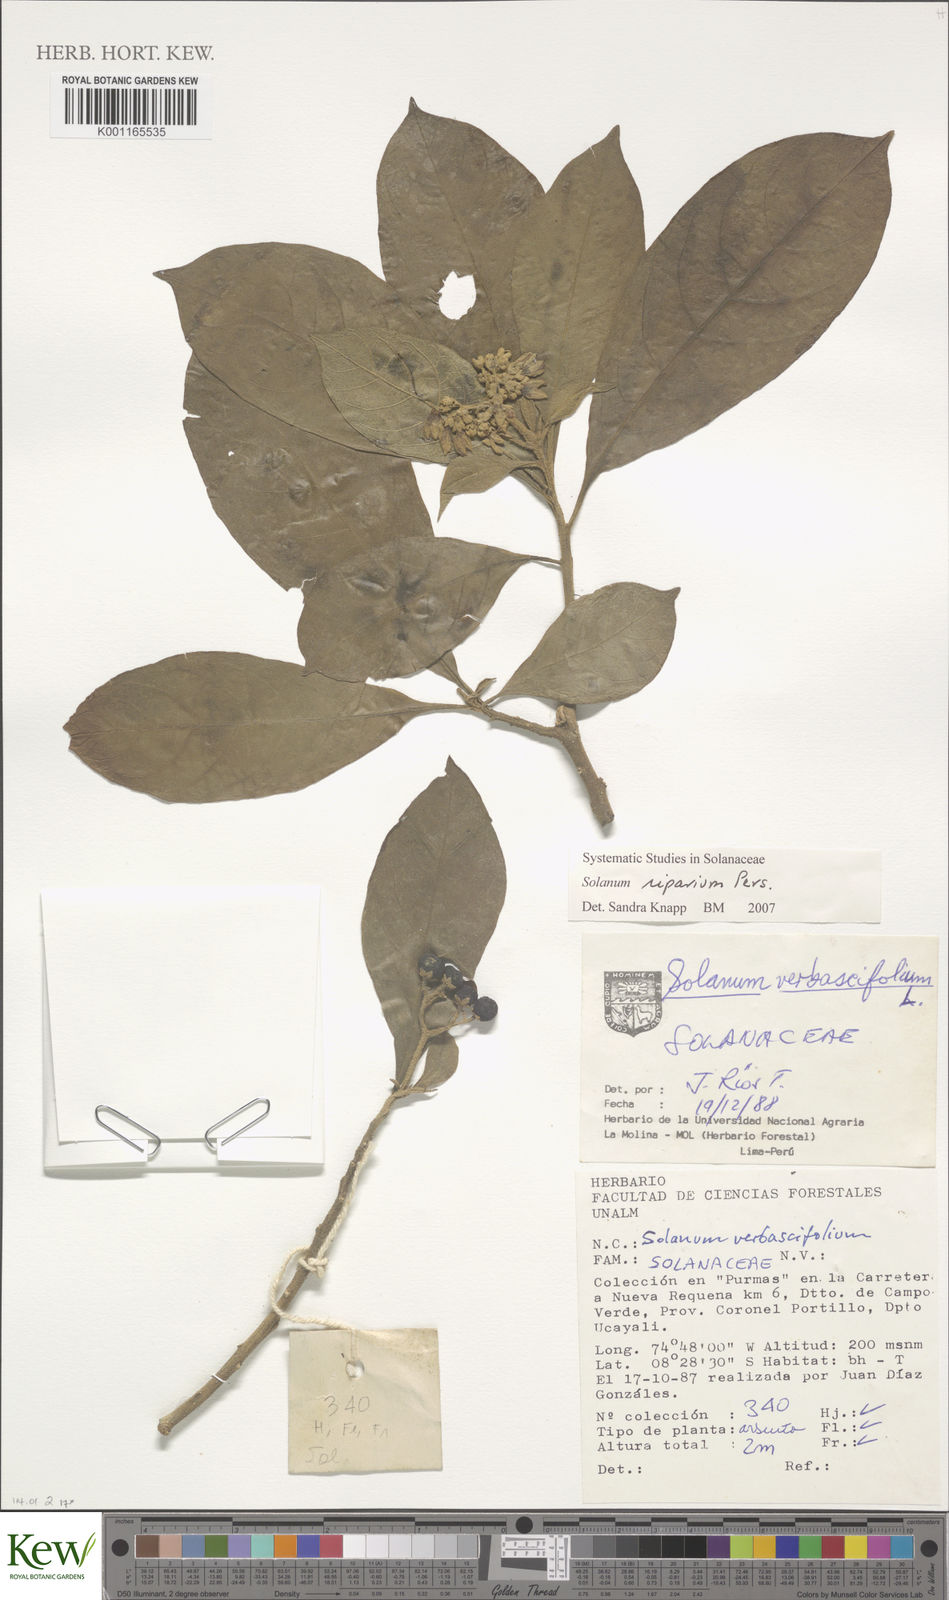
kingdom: Plantae
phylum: Tracheophyta
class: Magnoliopsida
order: Solanales
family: Solanaceae
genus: Solanum
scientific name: Solanum riparium
